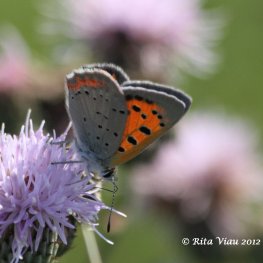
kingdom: Animalia
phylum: Arthropoda
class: Insecta
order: Lepidoptera
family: Lycaenidae
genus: Lycaena
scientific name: Lycaena phlaeas
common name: American Copper
